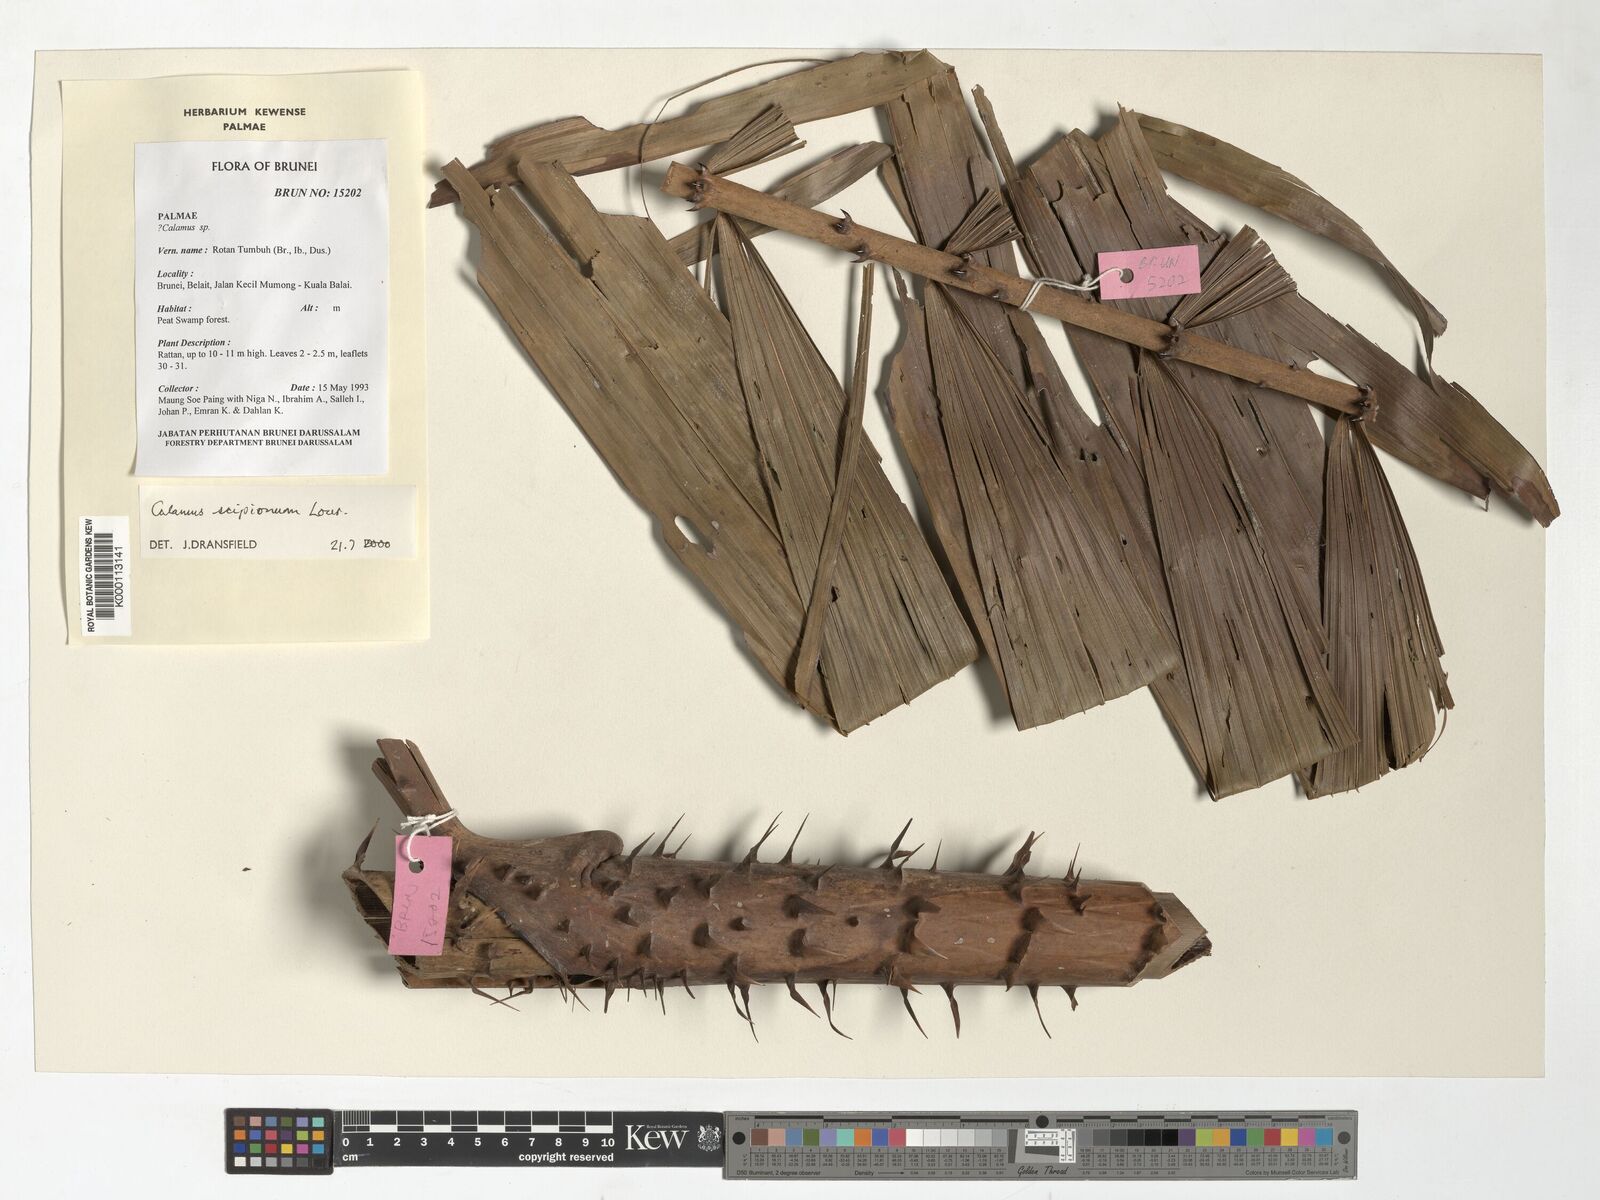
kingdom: Plantae
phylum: Tracheophyta
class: Liliopsida
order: Arecales
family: Arecaceae
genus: Calamus
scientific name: Calamus scipionum
